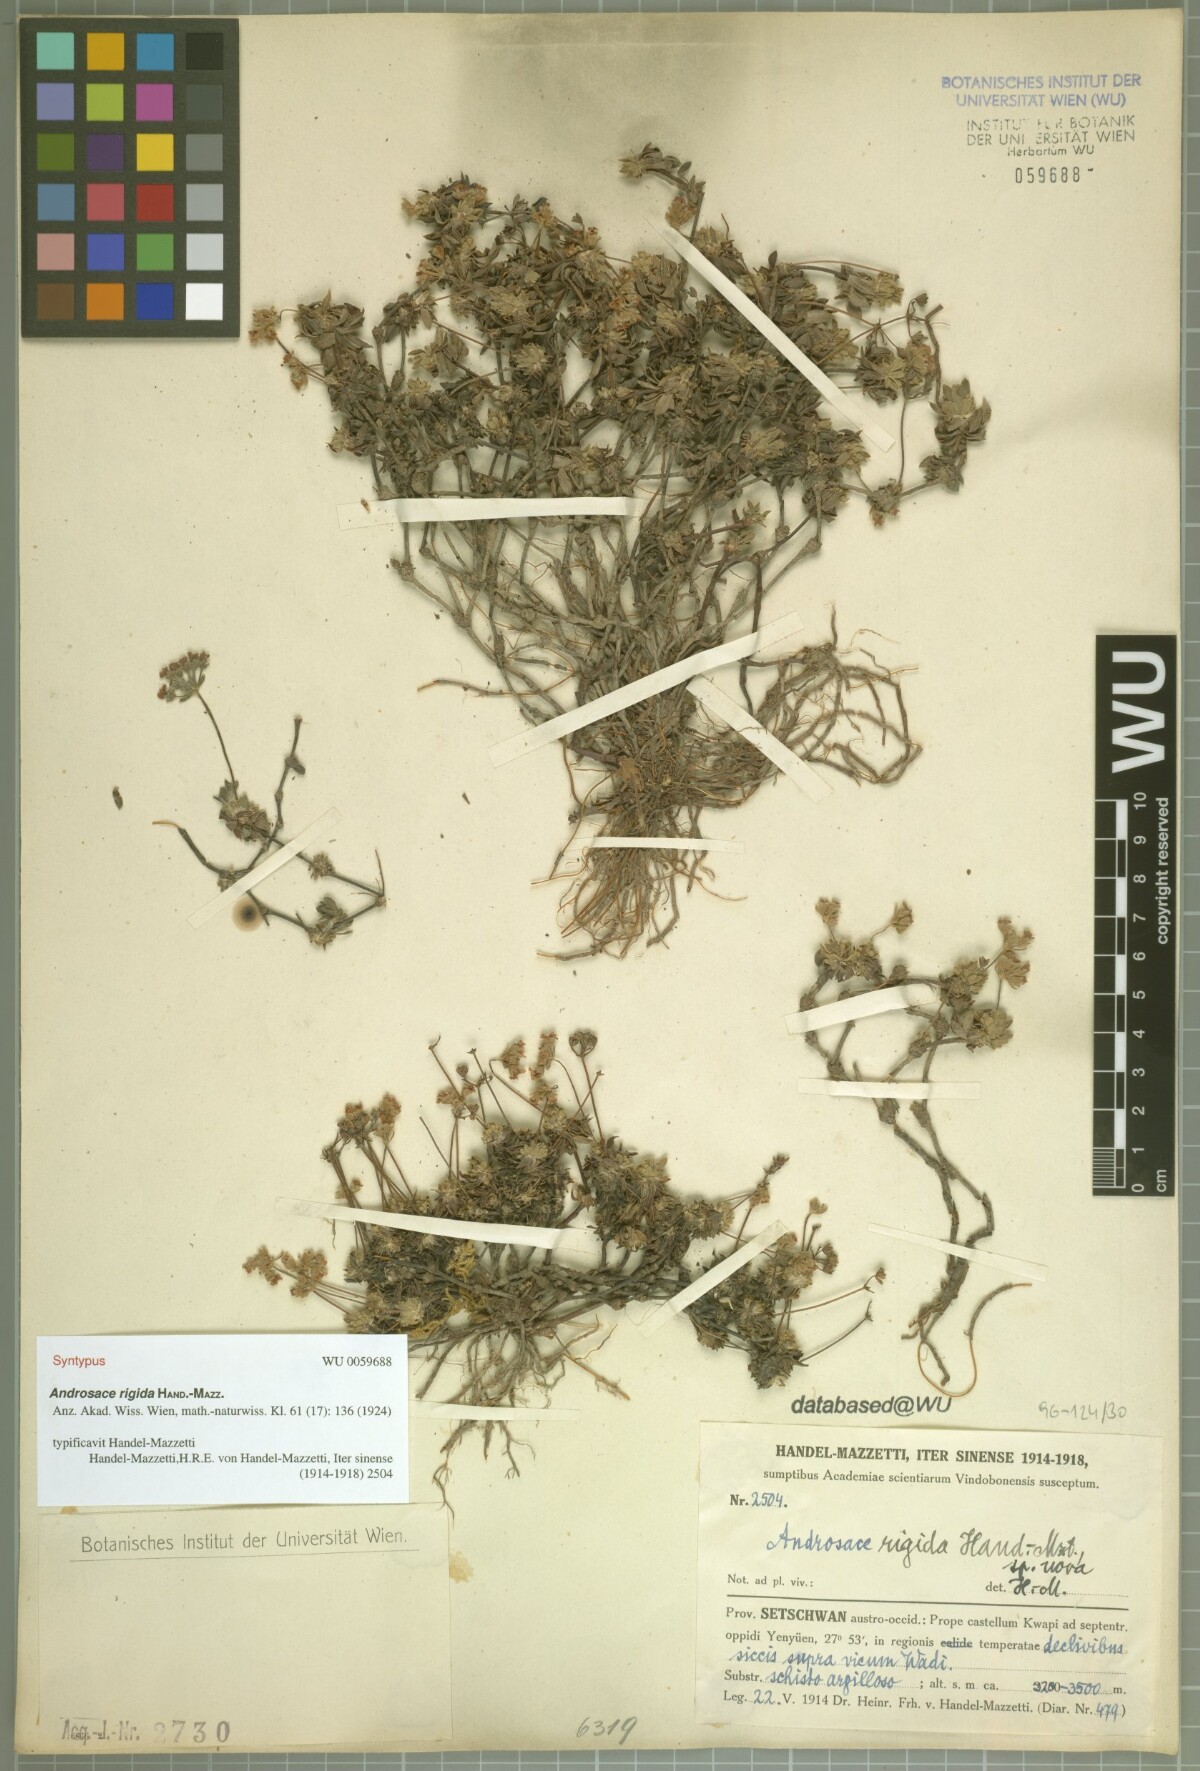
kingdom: Plantae
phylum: Tracheophyta
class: Magnoliopsida
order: Ericales
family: Primulaceae
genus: Androsace
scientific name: Androsace rigida
